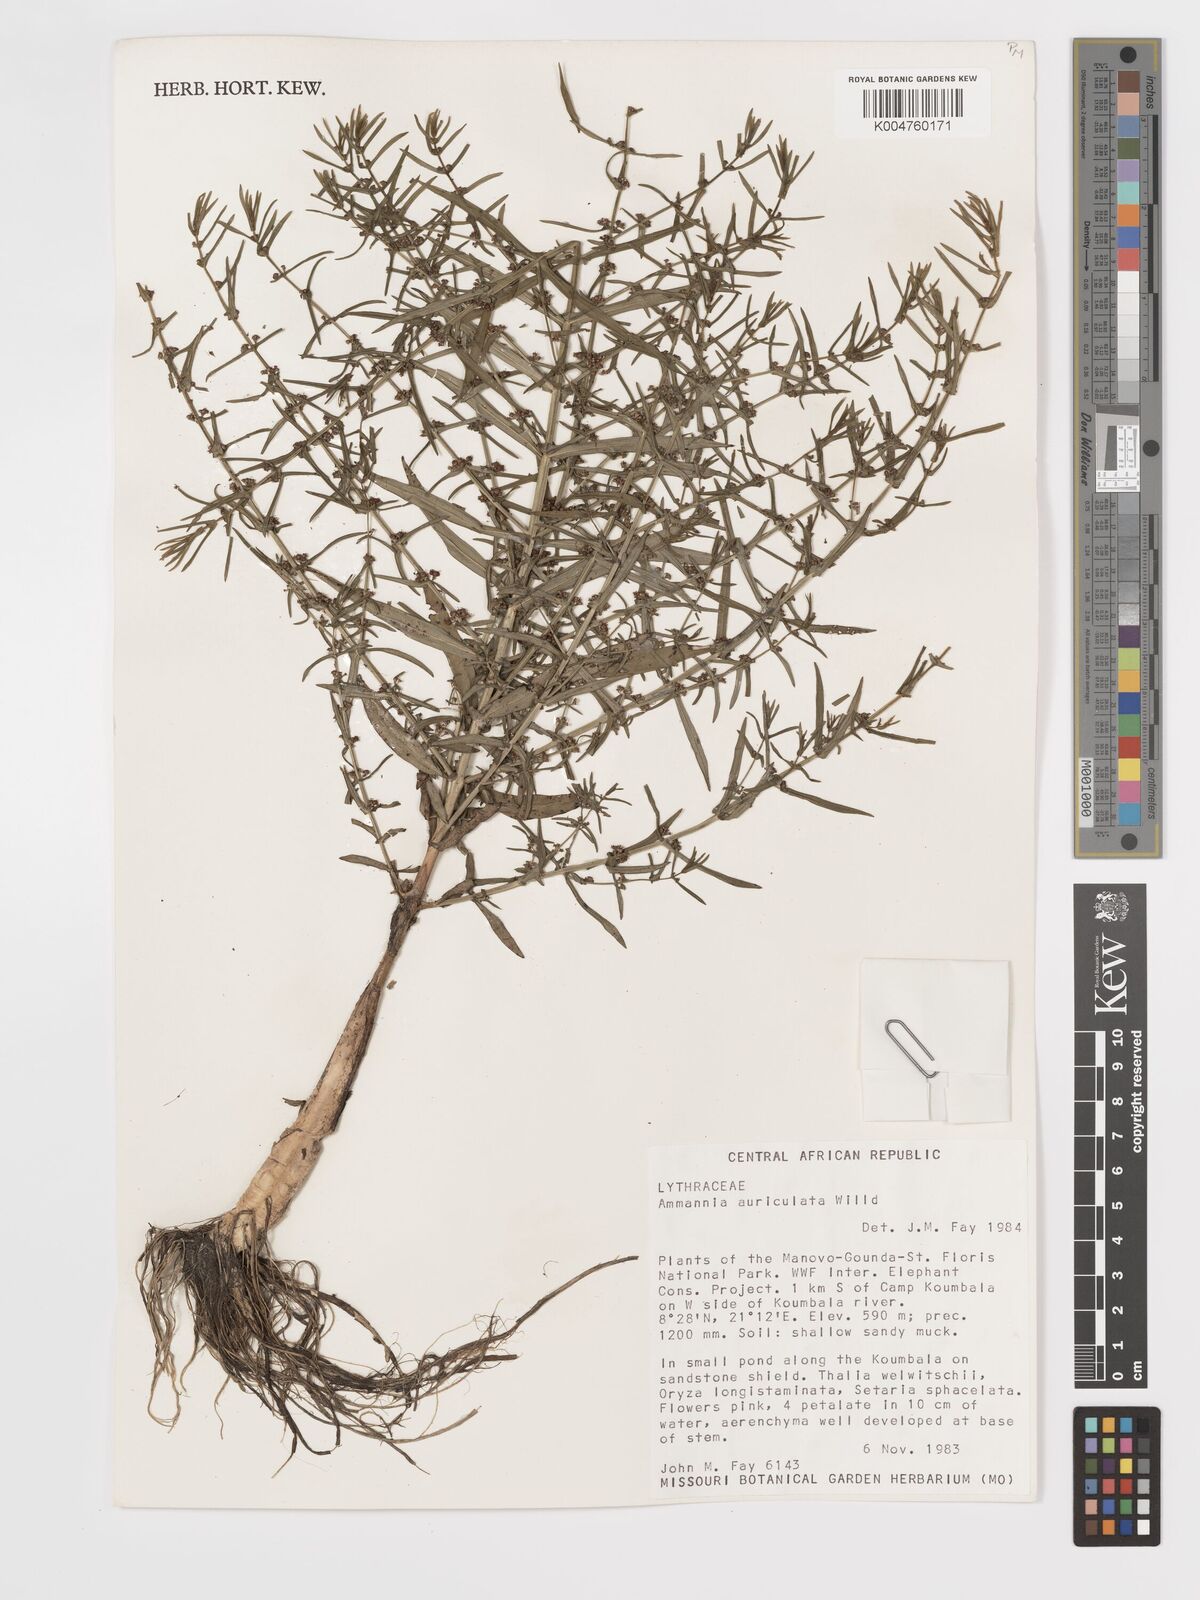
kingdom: Plantae
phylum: Tracheophyta
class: Magnoliopsida
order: Myrtales
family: Lythraceae
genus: Ammannia
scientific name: Ammannia auriculata
